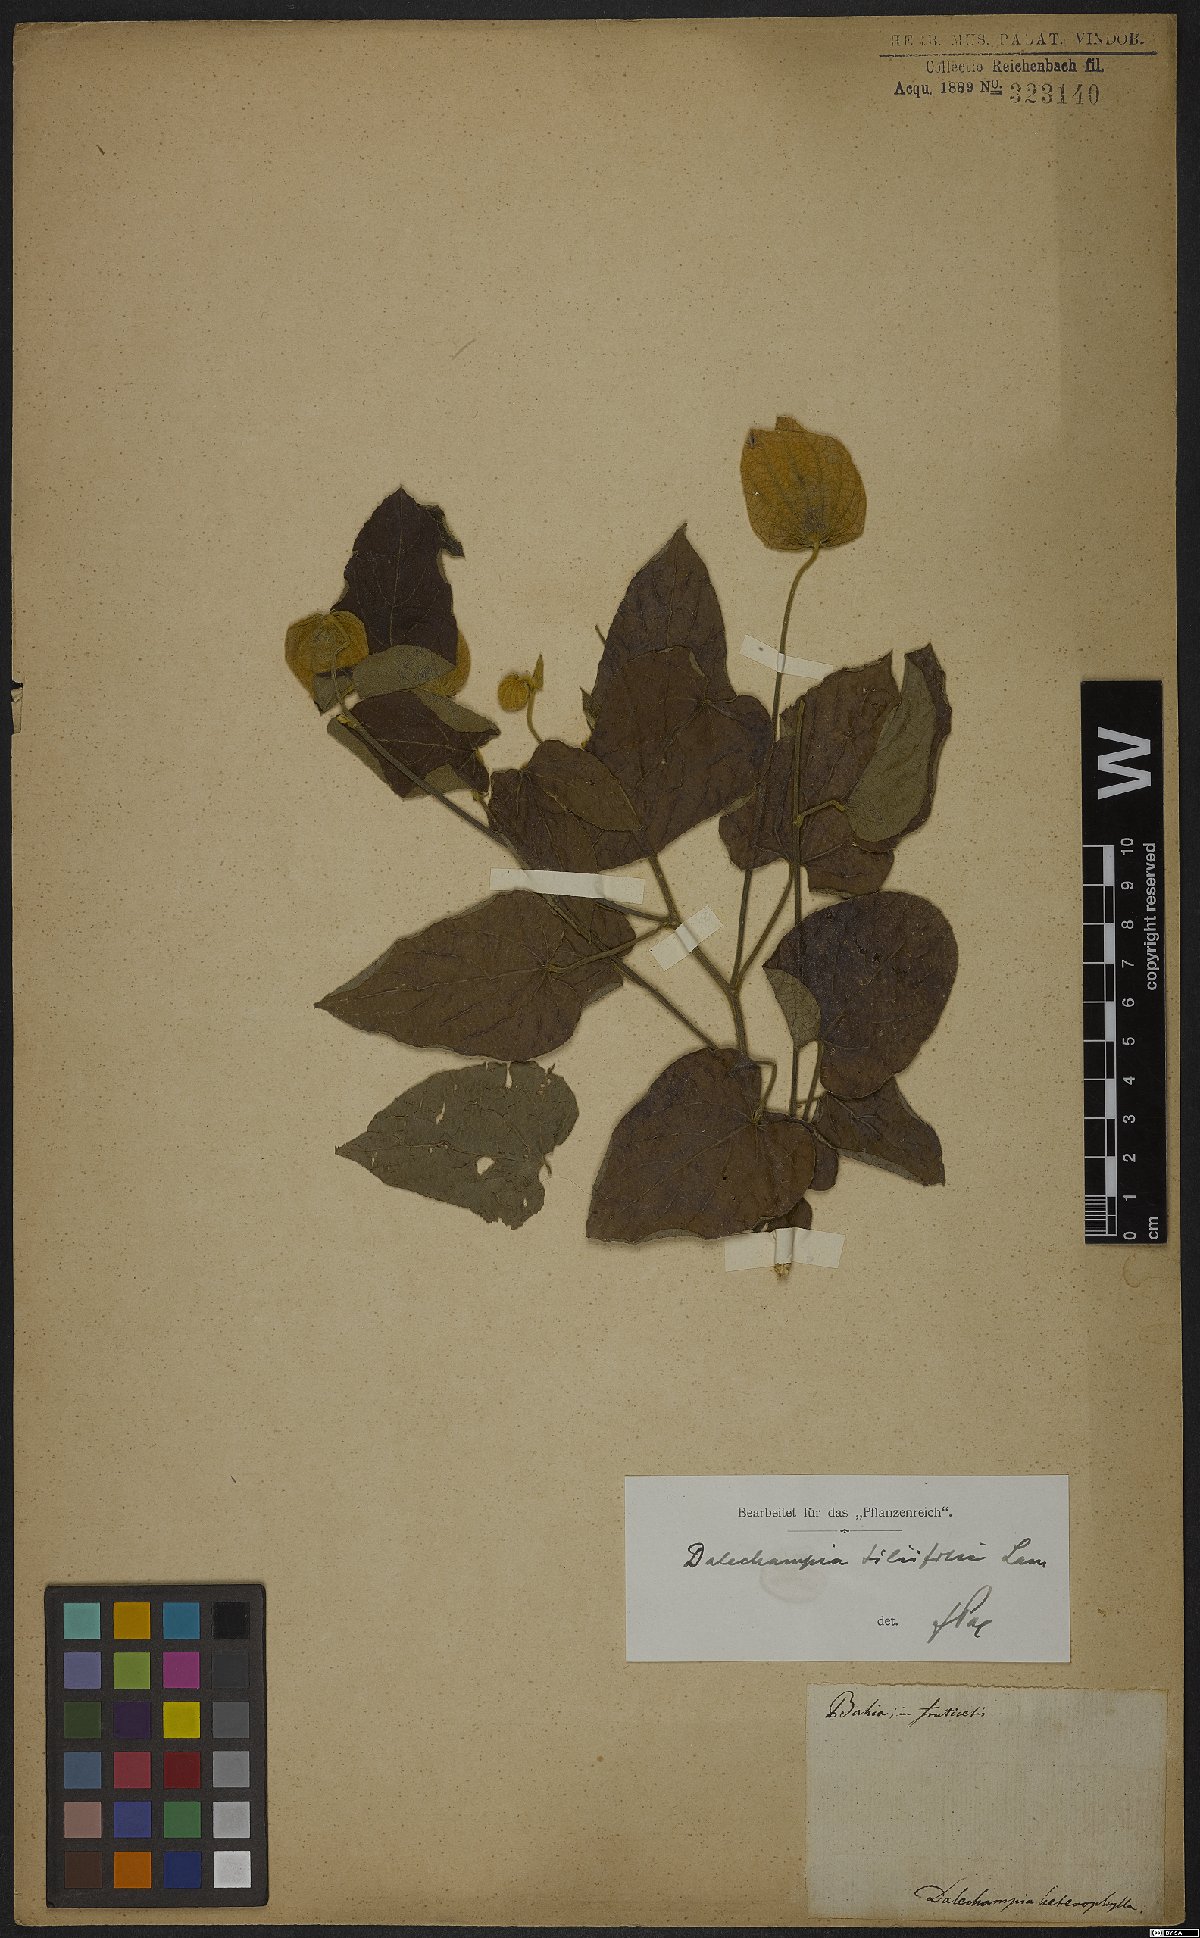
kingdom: Plantae
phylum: Tracheophyta
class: Magnoliopsida
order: Malpighiales
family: Euphorbiaceae
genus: Dalechampia
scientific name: Dalechampia tiliifolia
